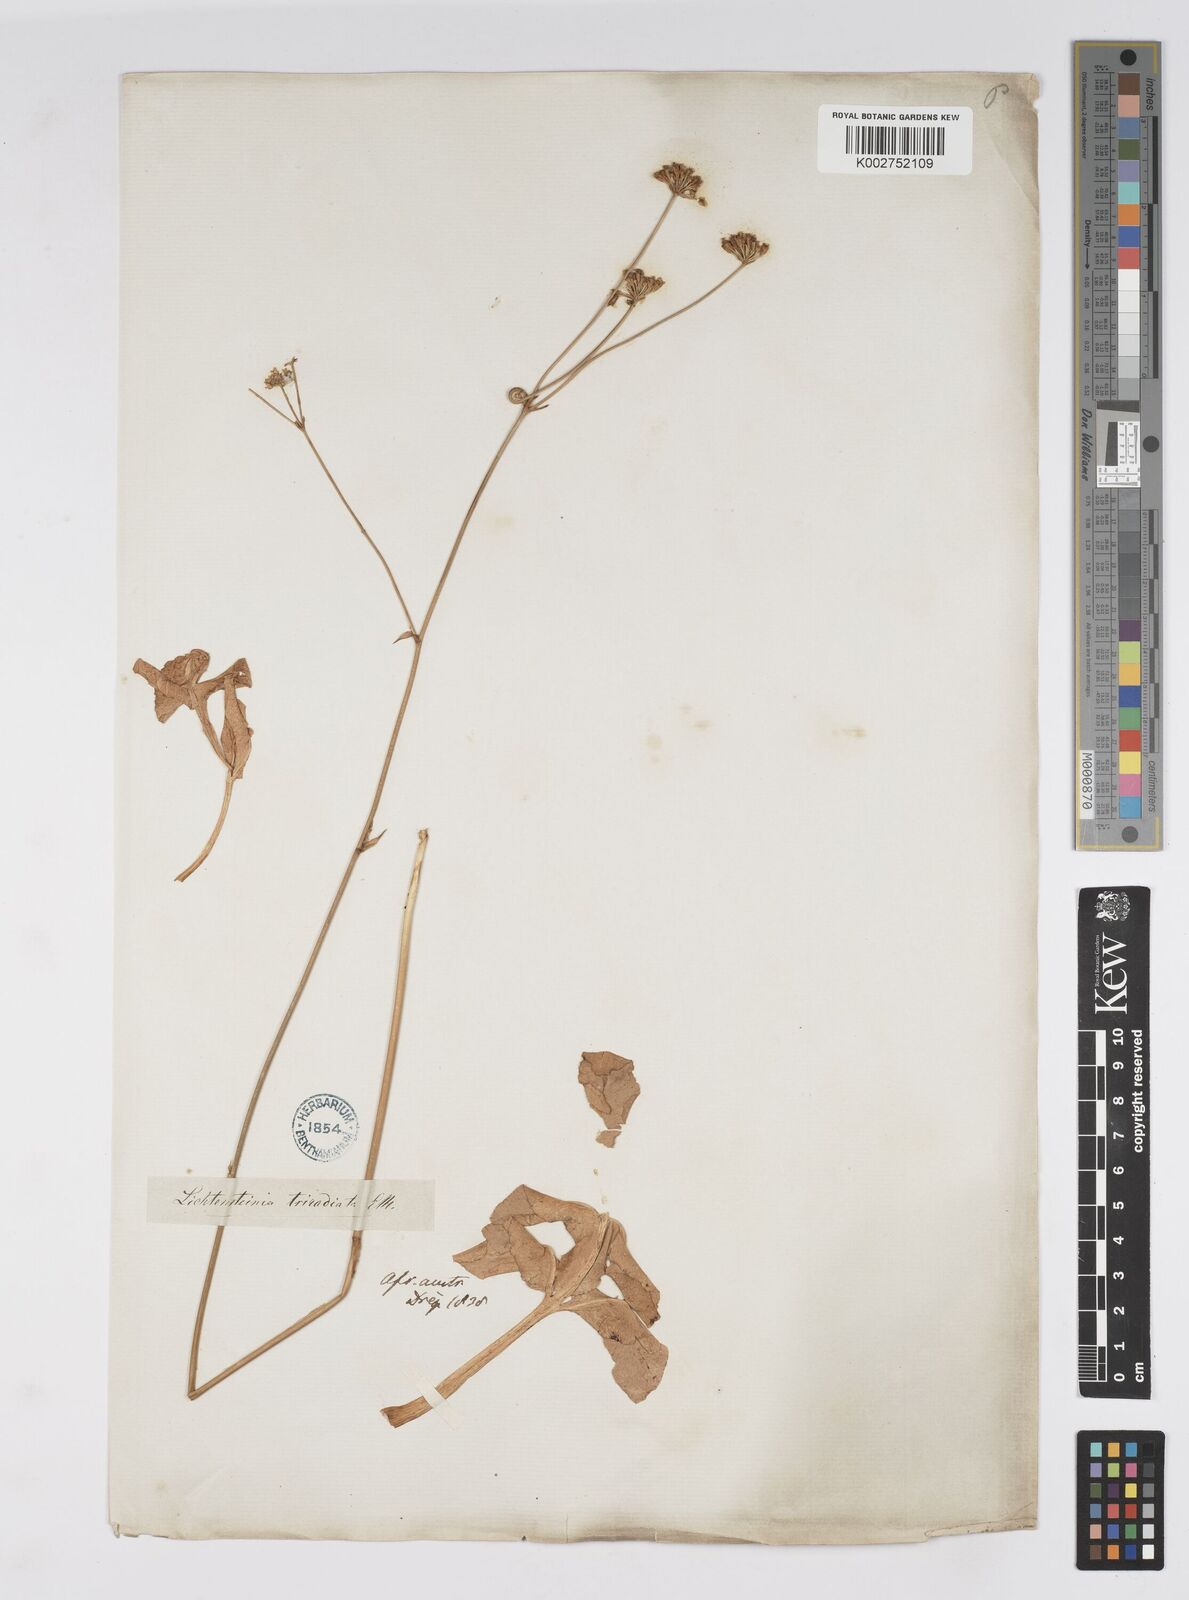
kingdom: Plantae
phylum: Tracheophyta
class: Magnoliopsida
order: Apiales
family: Apiaceae
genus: Lichtensteinia
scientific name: Lichtensteinia obscura
